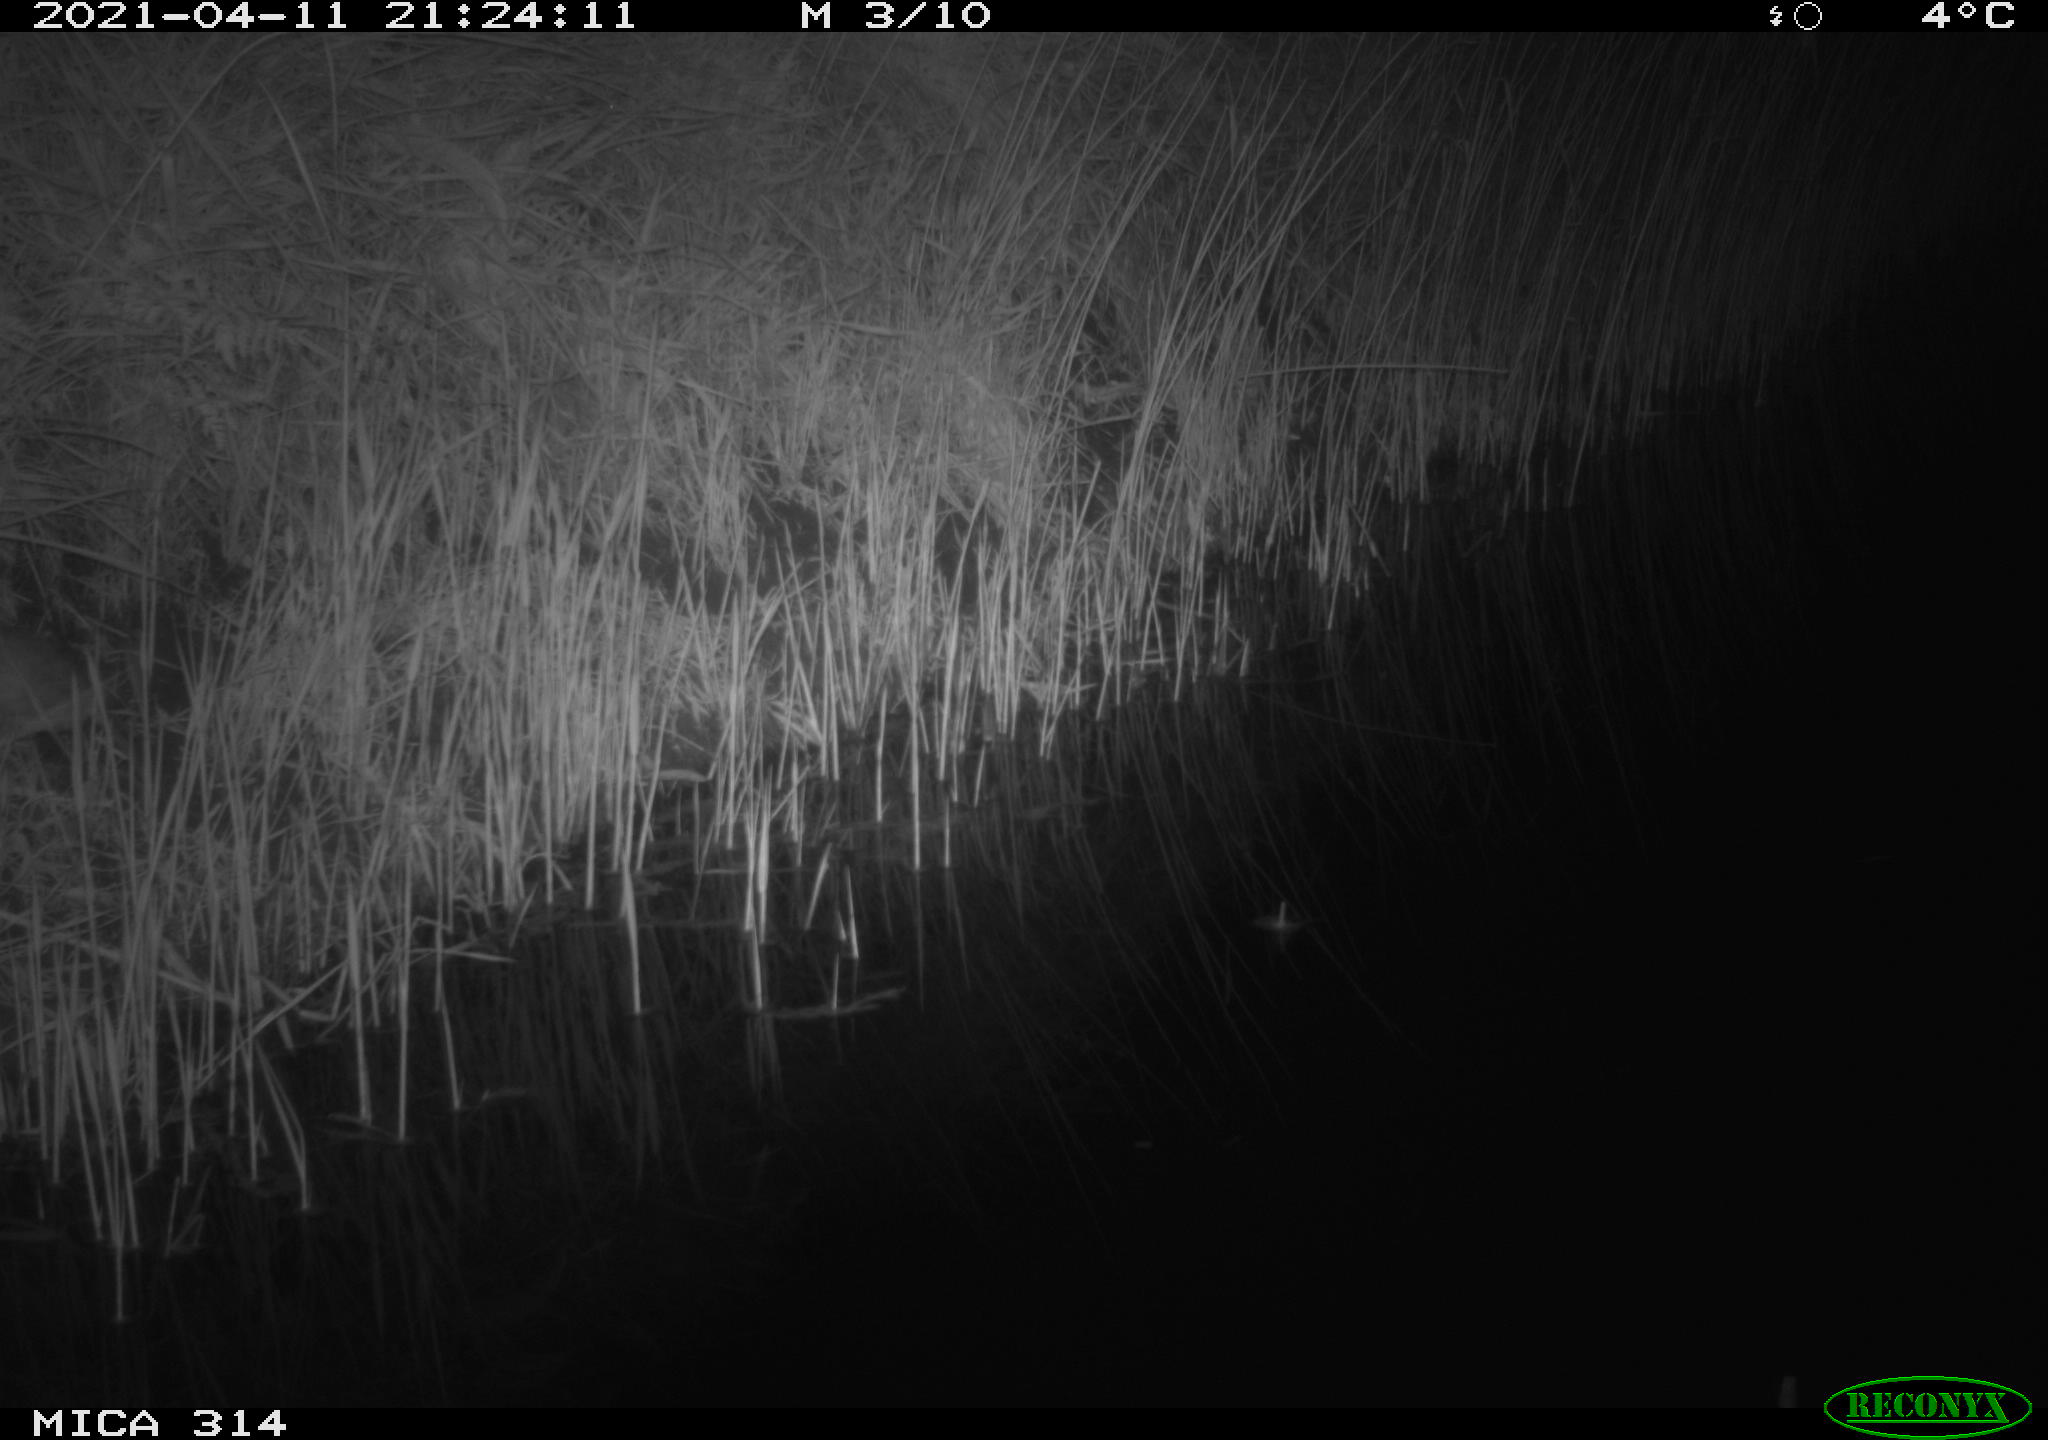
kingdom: Animalia
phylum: Chordata
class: Mammalia
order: Rodentia
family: Muridae
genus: Rattus
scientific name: Rattus norvegicus
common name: Brown rat
